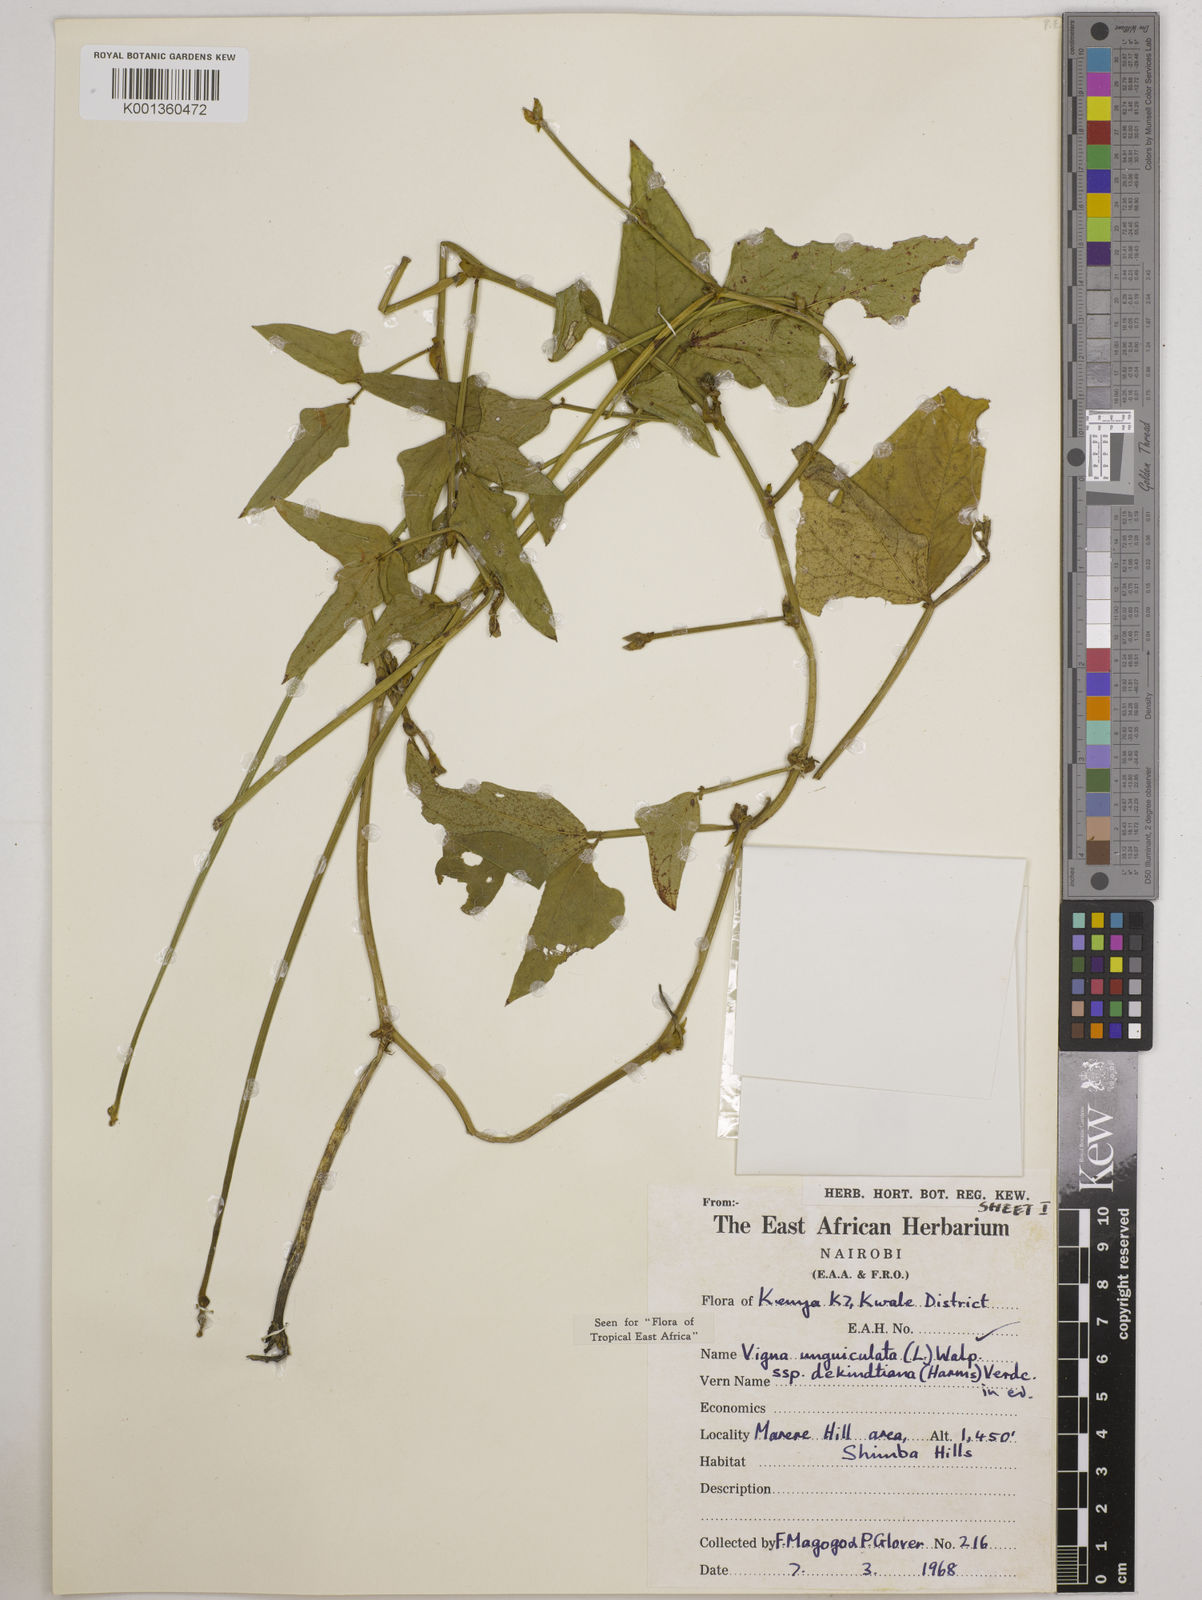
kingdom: Plantae
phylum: Tracheophyta
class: Magnoliopsida
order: Fabales
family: Fabaceae
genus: Vigna
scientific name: Vigna
